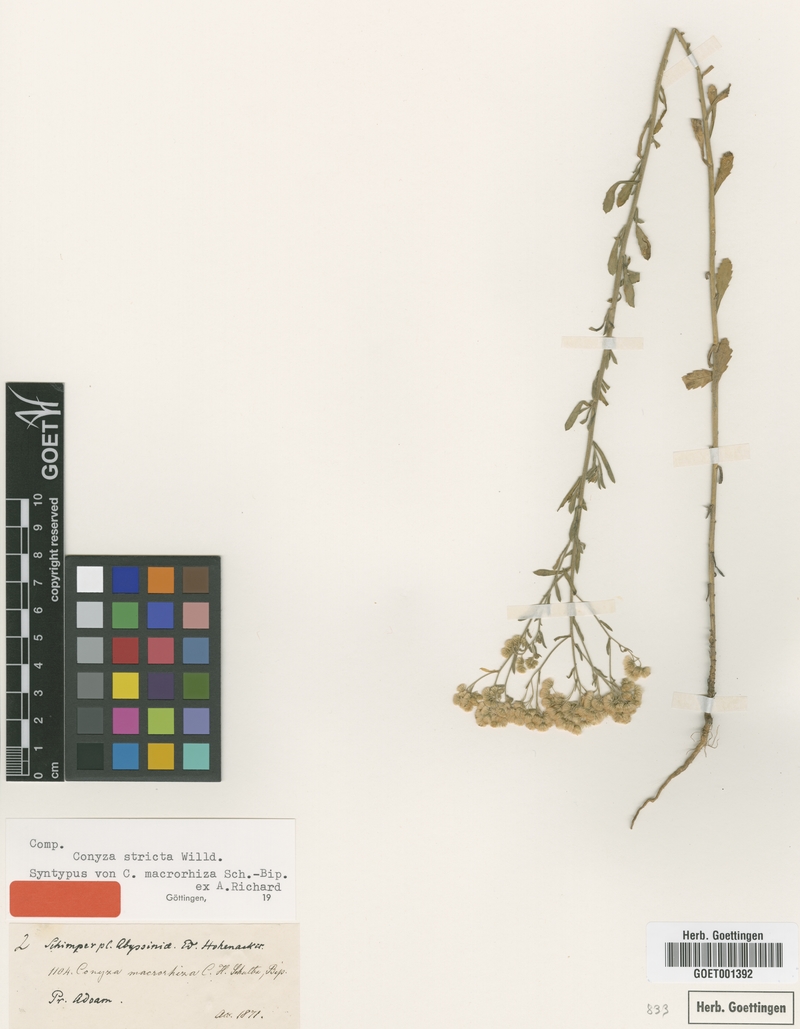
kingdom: Plantae
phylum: Tracheophyta
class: Magnoliopsida
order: Asterales
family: Asteraceae
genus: Nidorella
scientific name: Nidorella triloba
